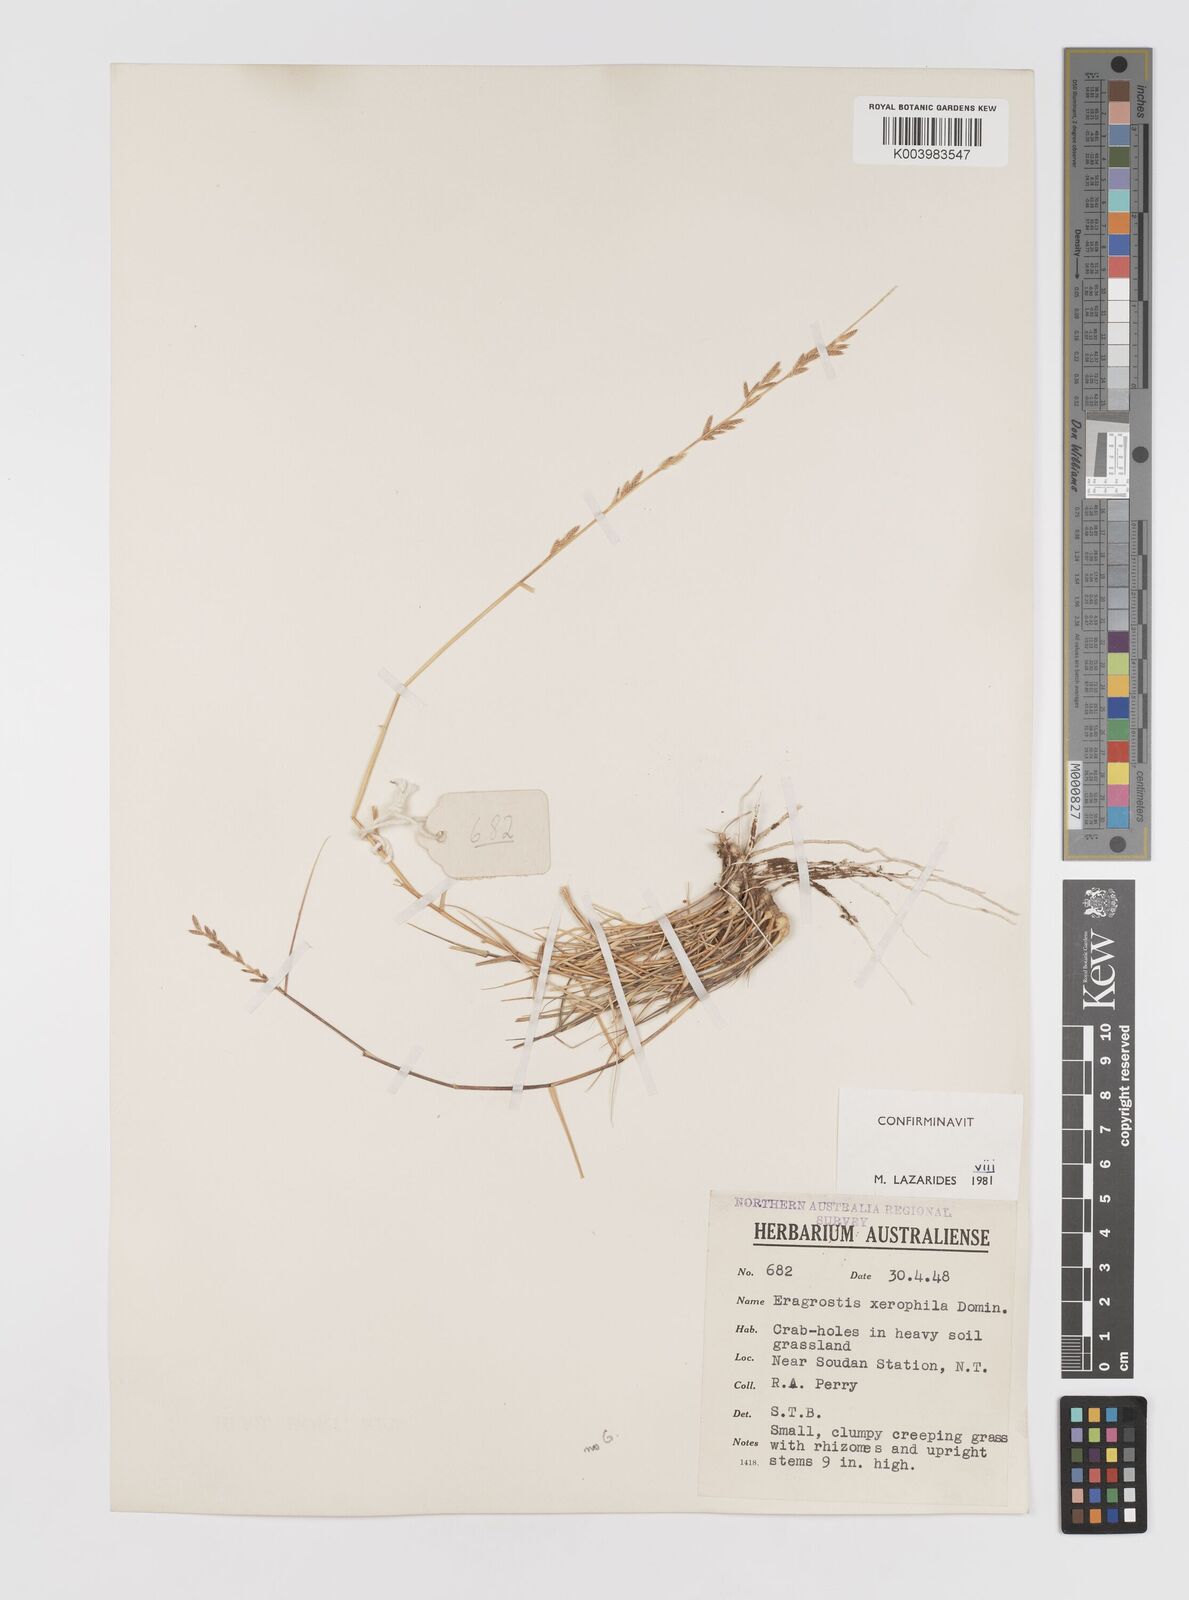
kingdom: Plantae
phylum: Tracheophyta
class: Liliopsida
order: Poales
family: Poaceae
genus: Eragrostis
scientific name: Eragrostis xerophila
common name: Wire wandarrie grass
